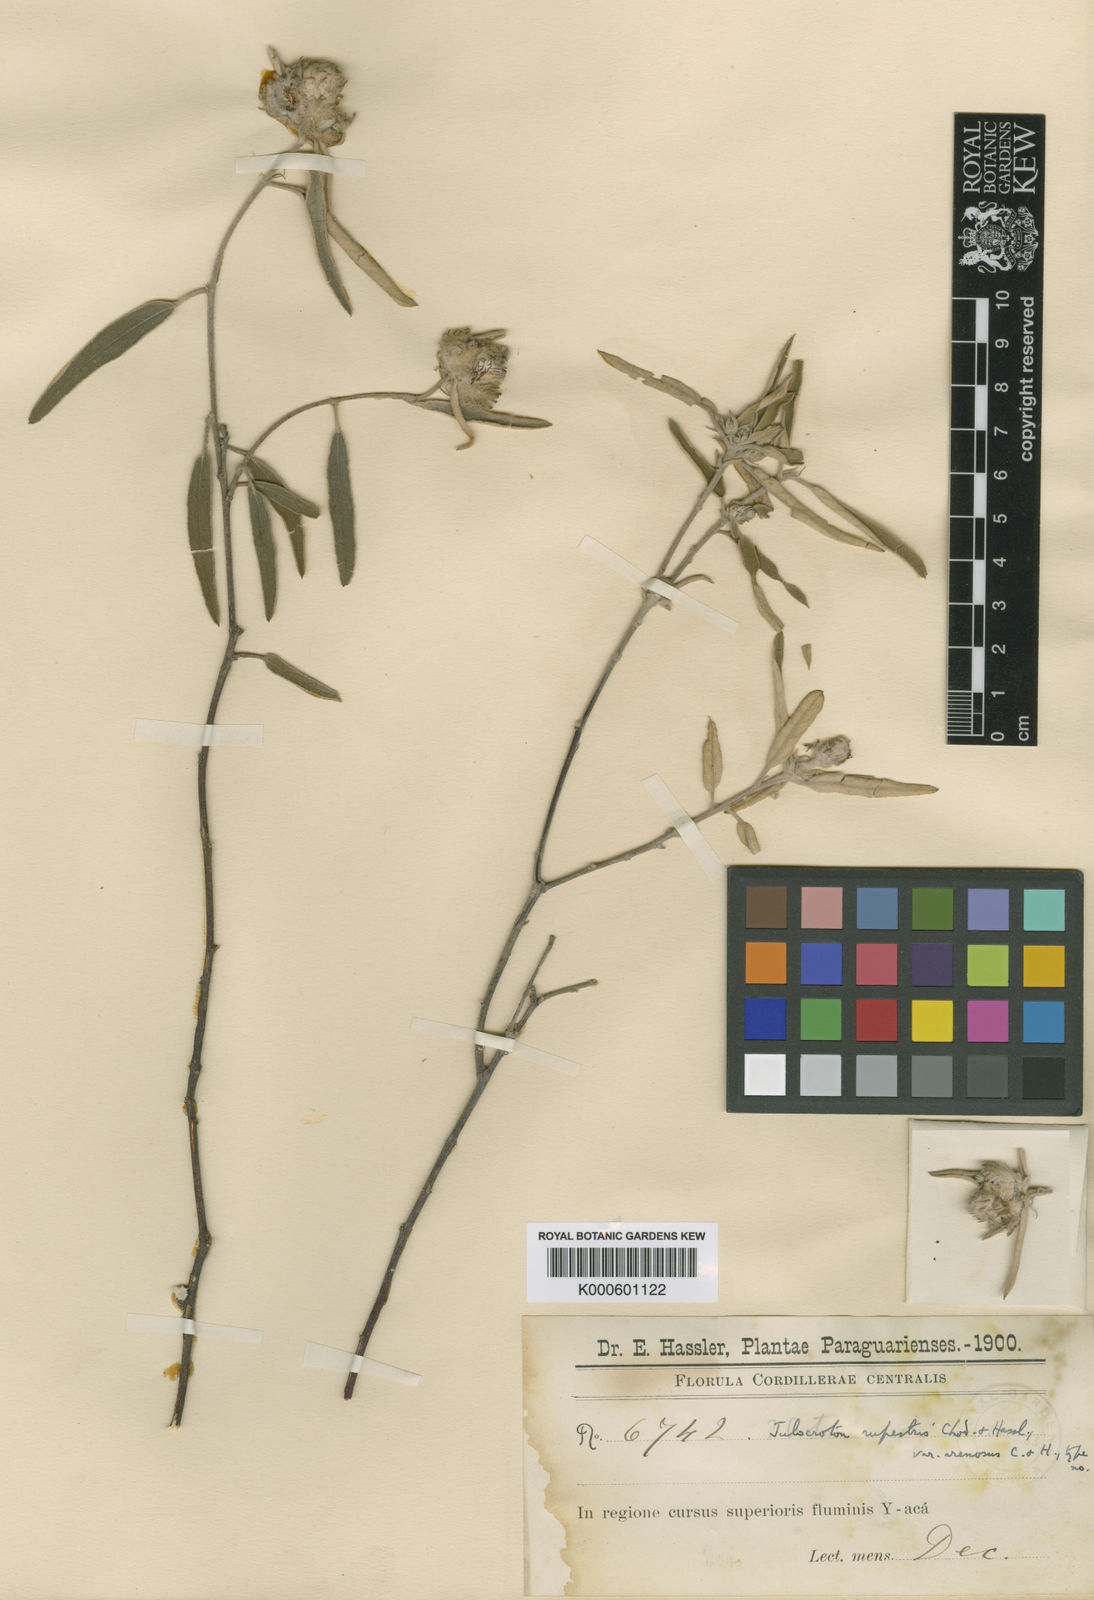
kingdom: Plantae
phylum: Tracheophyta
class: Magnoliopsida
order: Malpighiales
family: Euphorbiaceae
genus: Croton
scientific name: Croton rupestris
